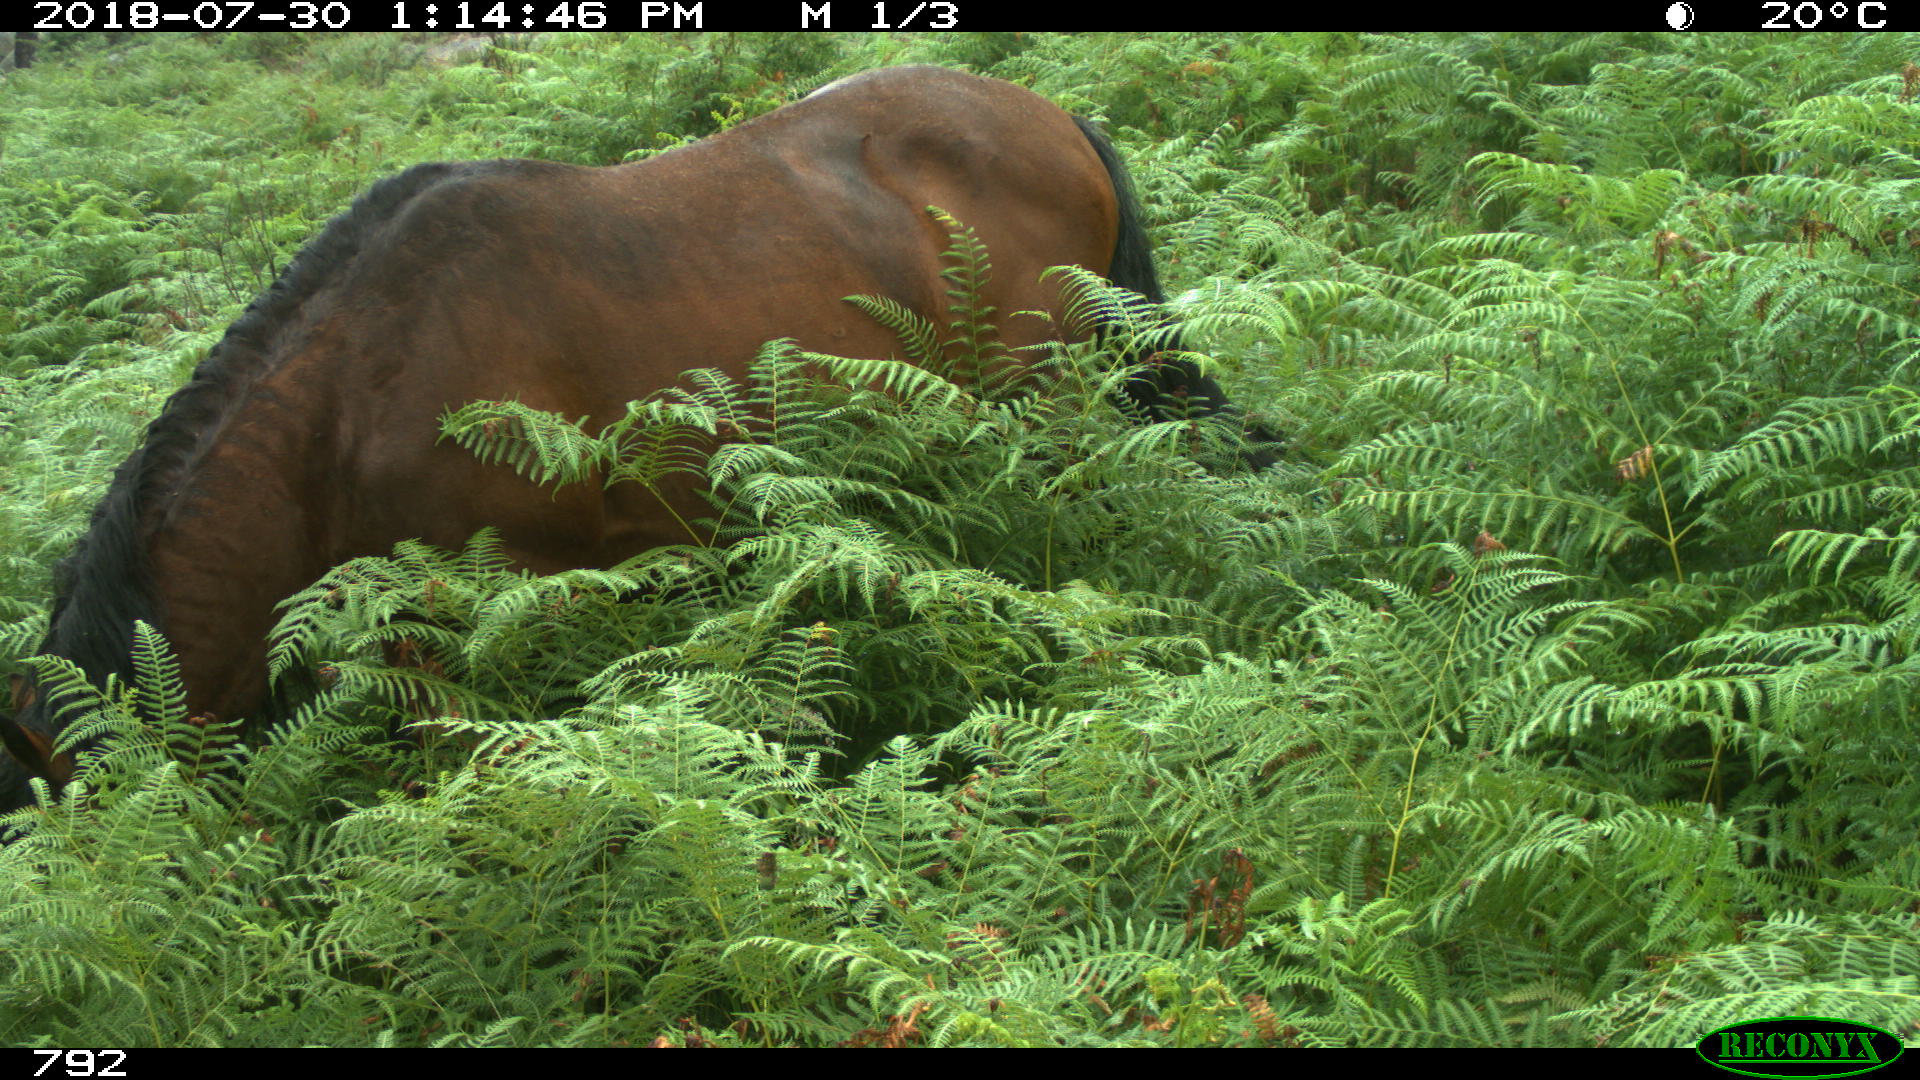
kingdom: Animalia
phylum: Chordata
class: Mammalia
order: Perissodactyla
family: Equidae
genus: Equus
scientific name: Equus caballus
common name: Horse
